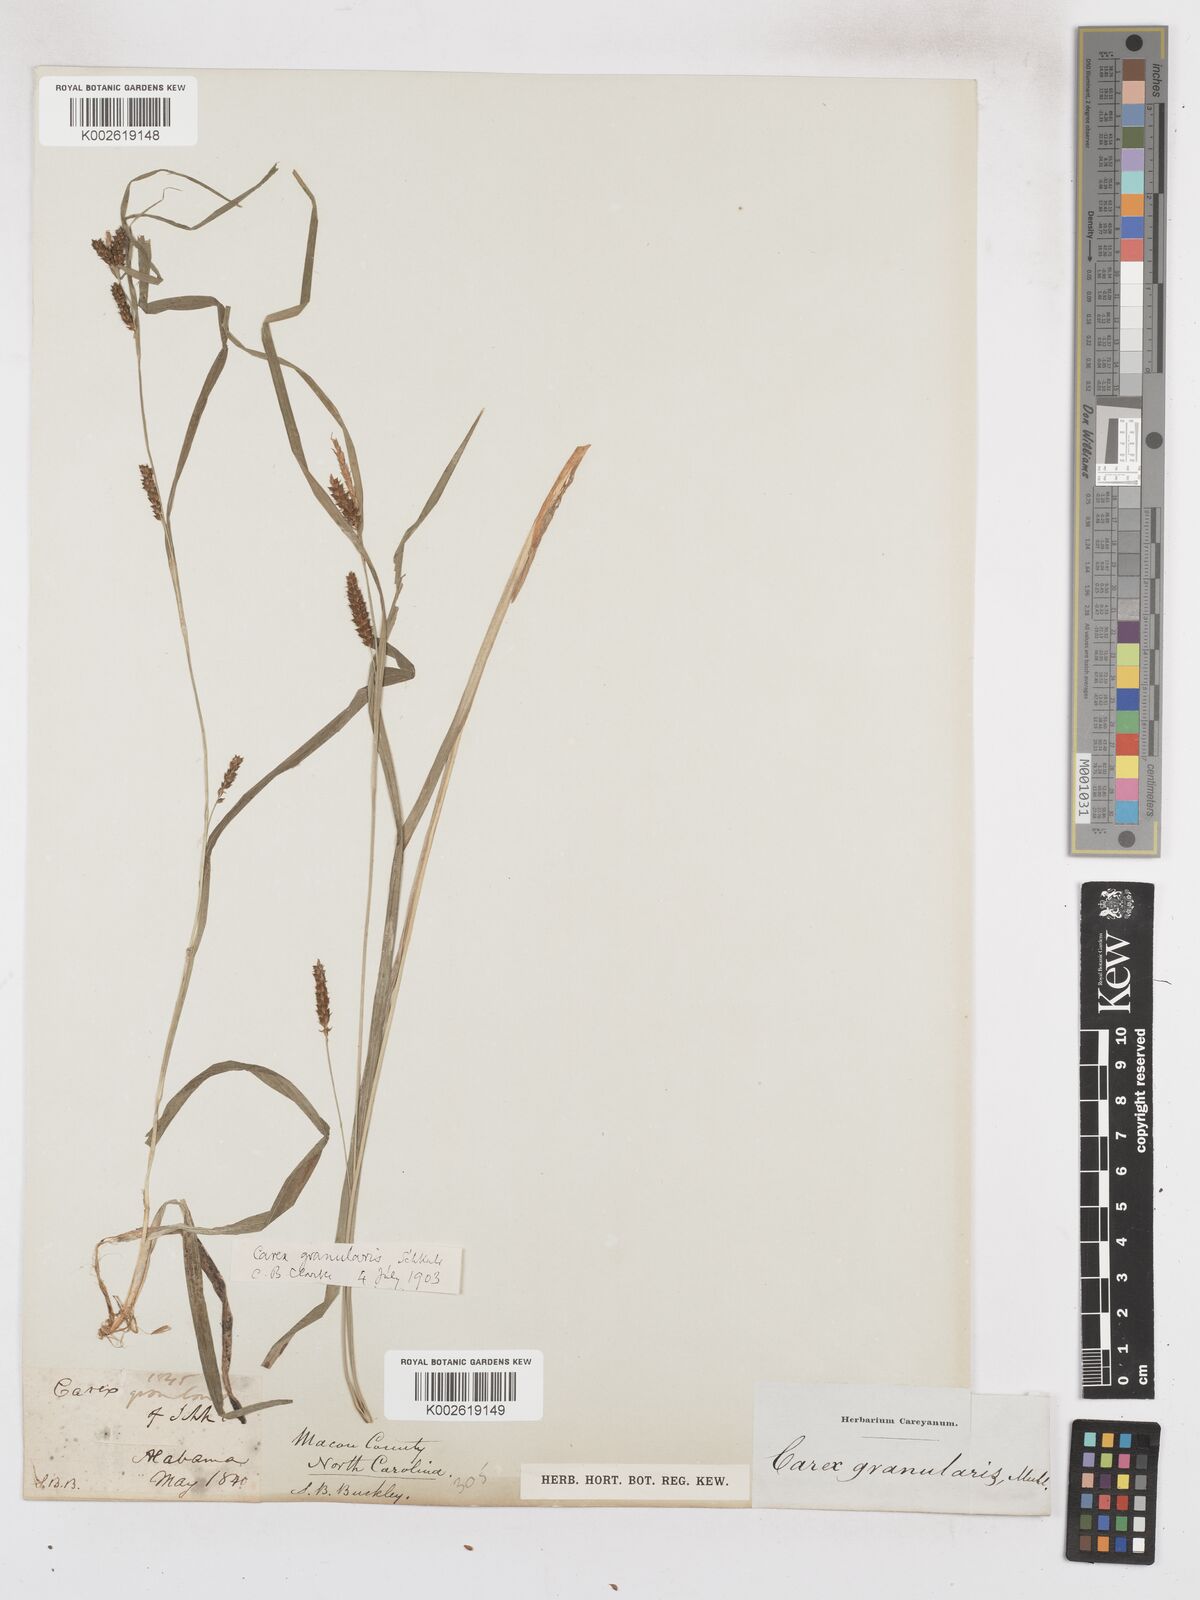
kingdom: Plantae
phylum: Tracheophyta
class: Liliopsida
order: Poales
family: Cyperaceae
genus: Carex
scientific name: Carex granularis
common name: Granular sedge
